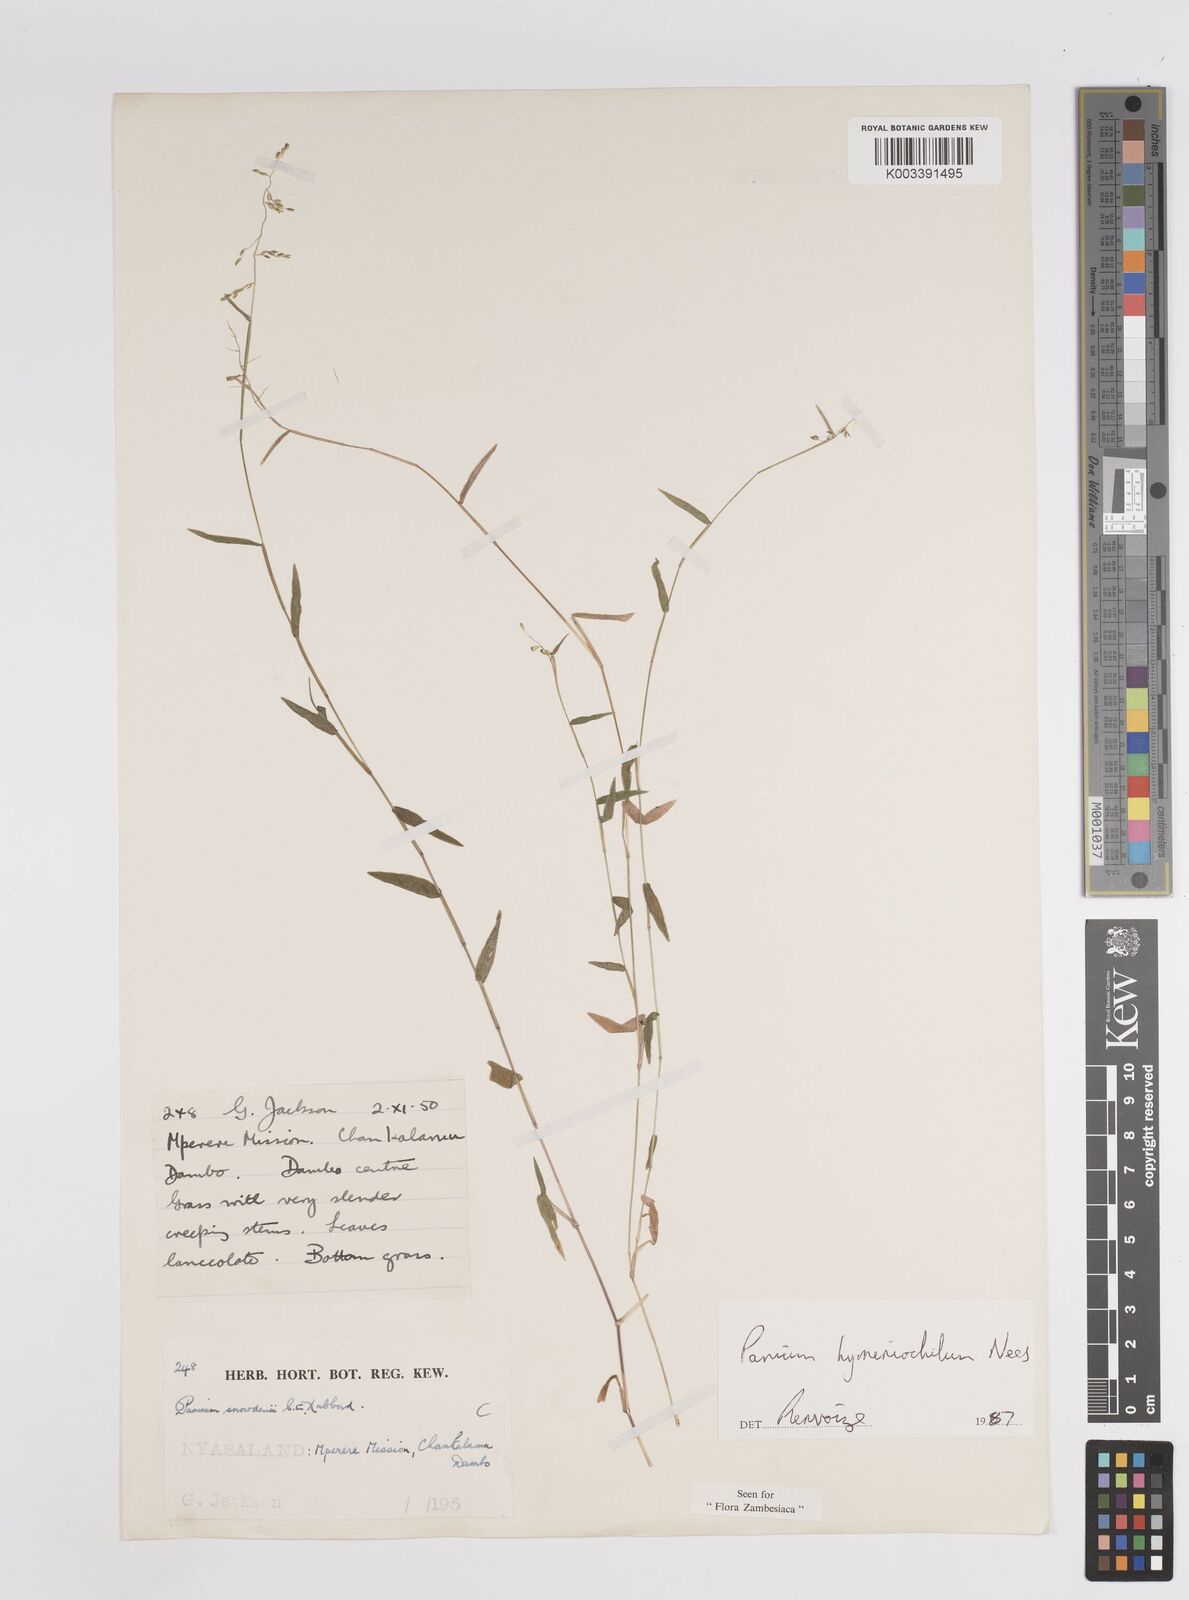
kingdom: Plantae
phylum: Tracheophyta
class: Liliopsida
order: Poales
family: Poaceae
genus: Adenochloa
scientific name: Adenochloa hymeniochila
